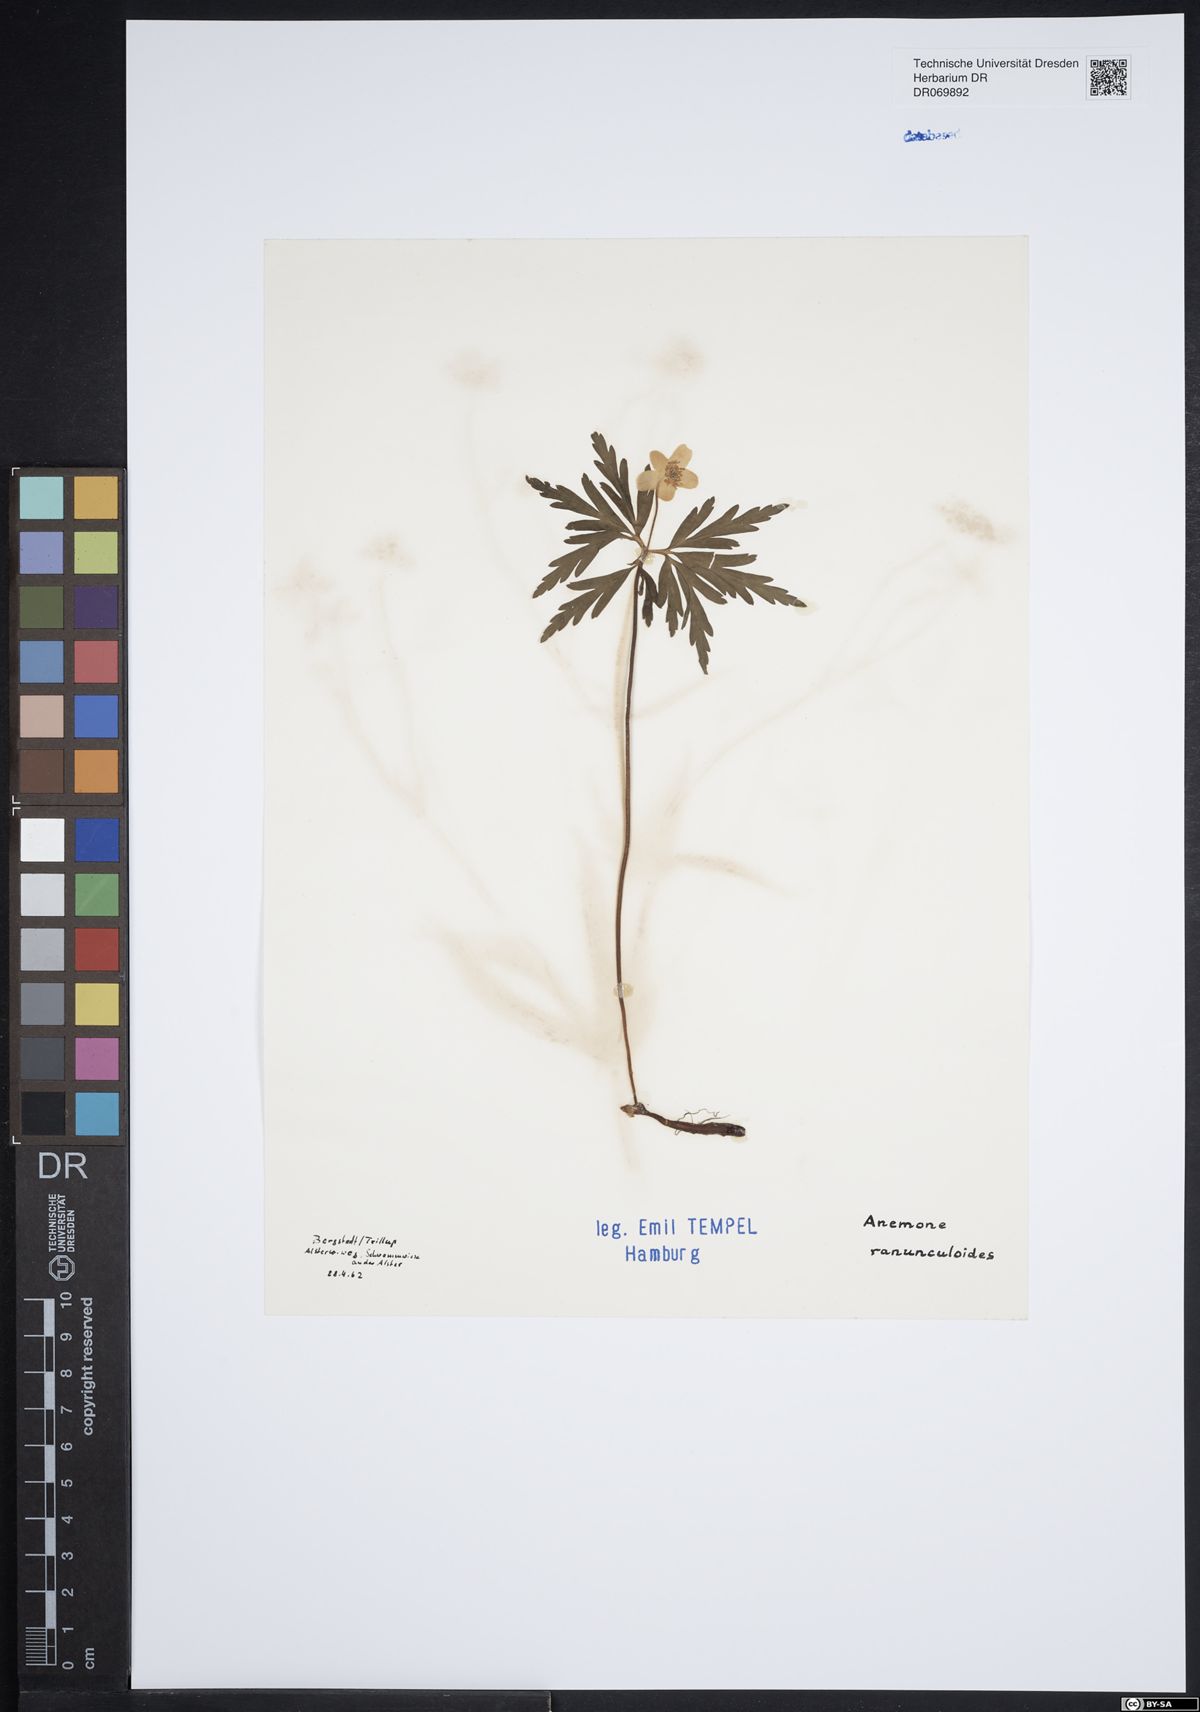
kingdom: Plantae
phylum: Tracheophyta
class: Magnoliopsida
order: Ranunculales
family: Ranunculaceae
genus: Anemone
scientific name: Anemone ranunculoides
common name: Yellow anemone
